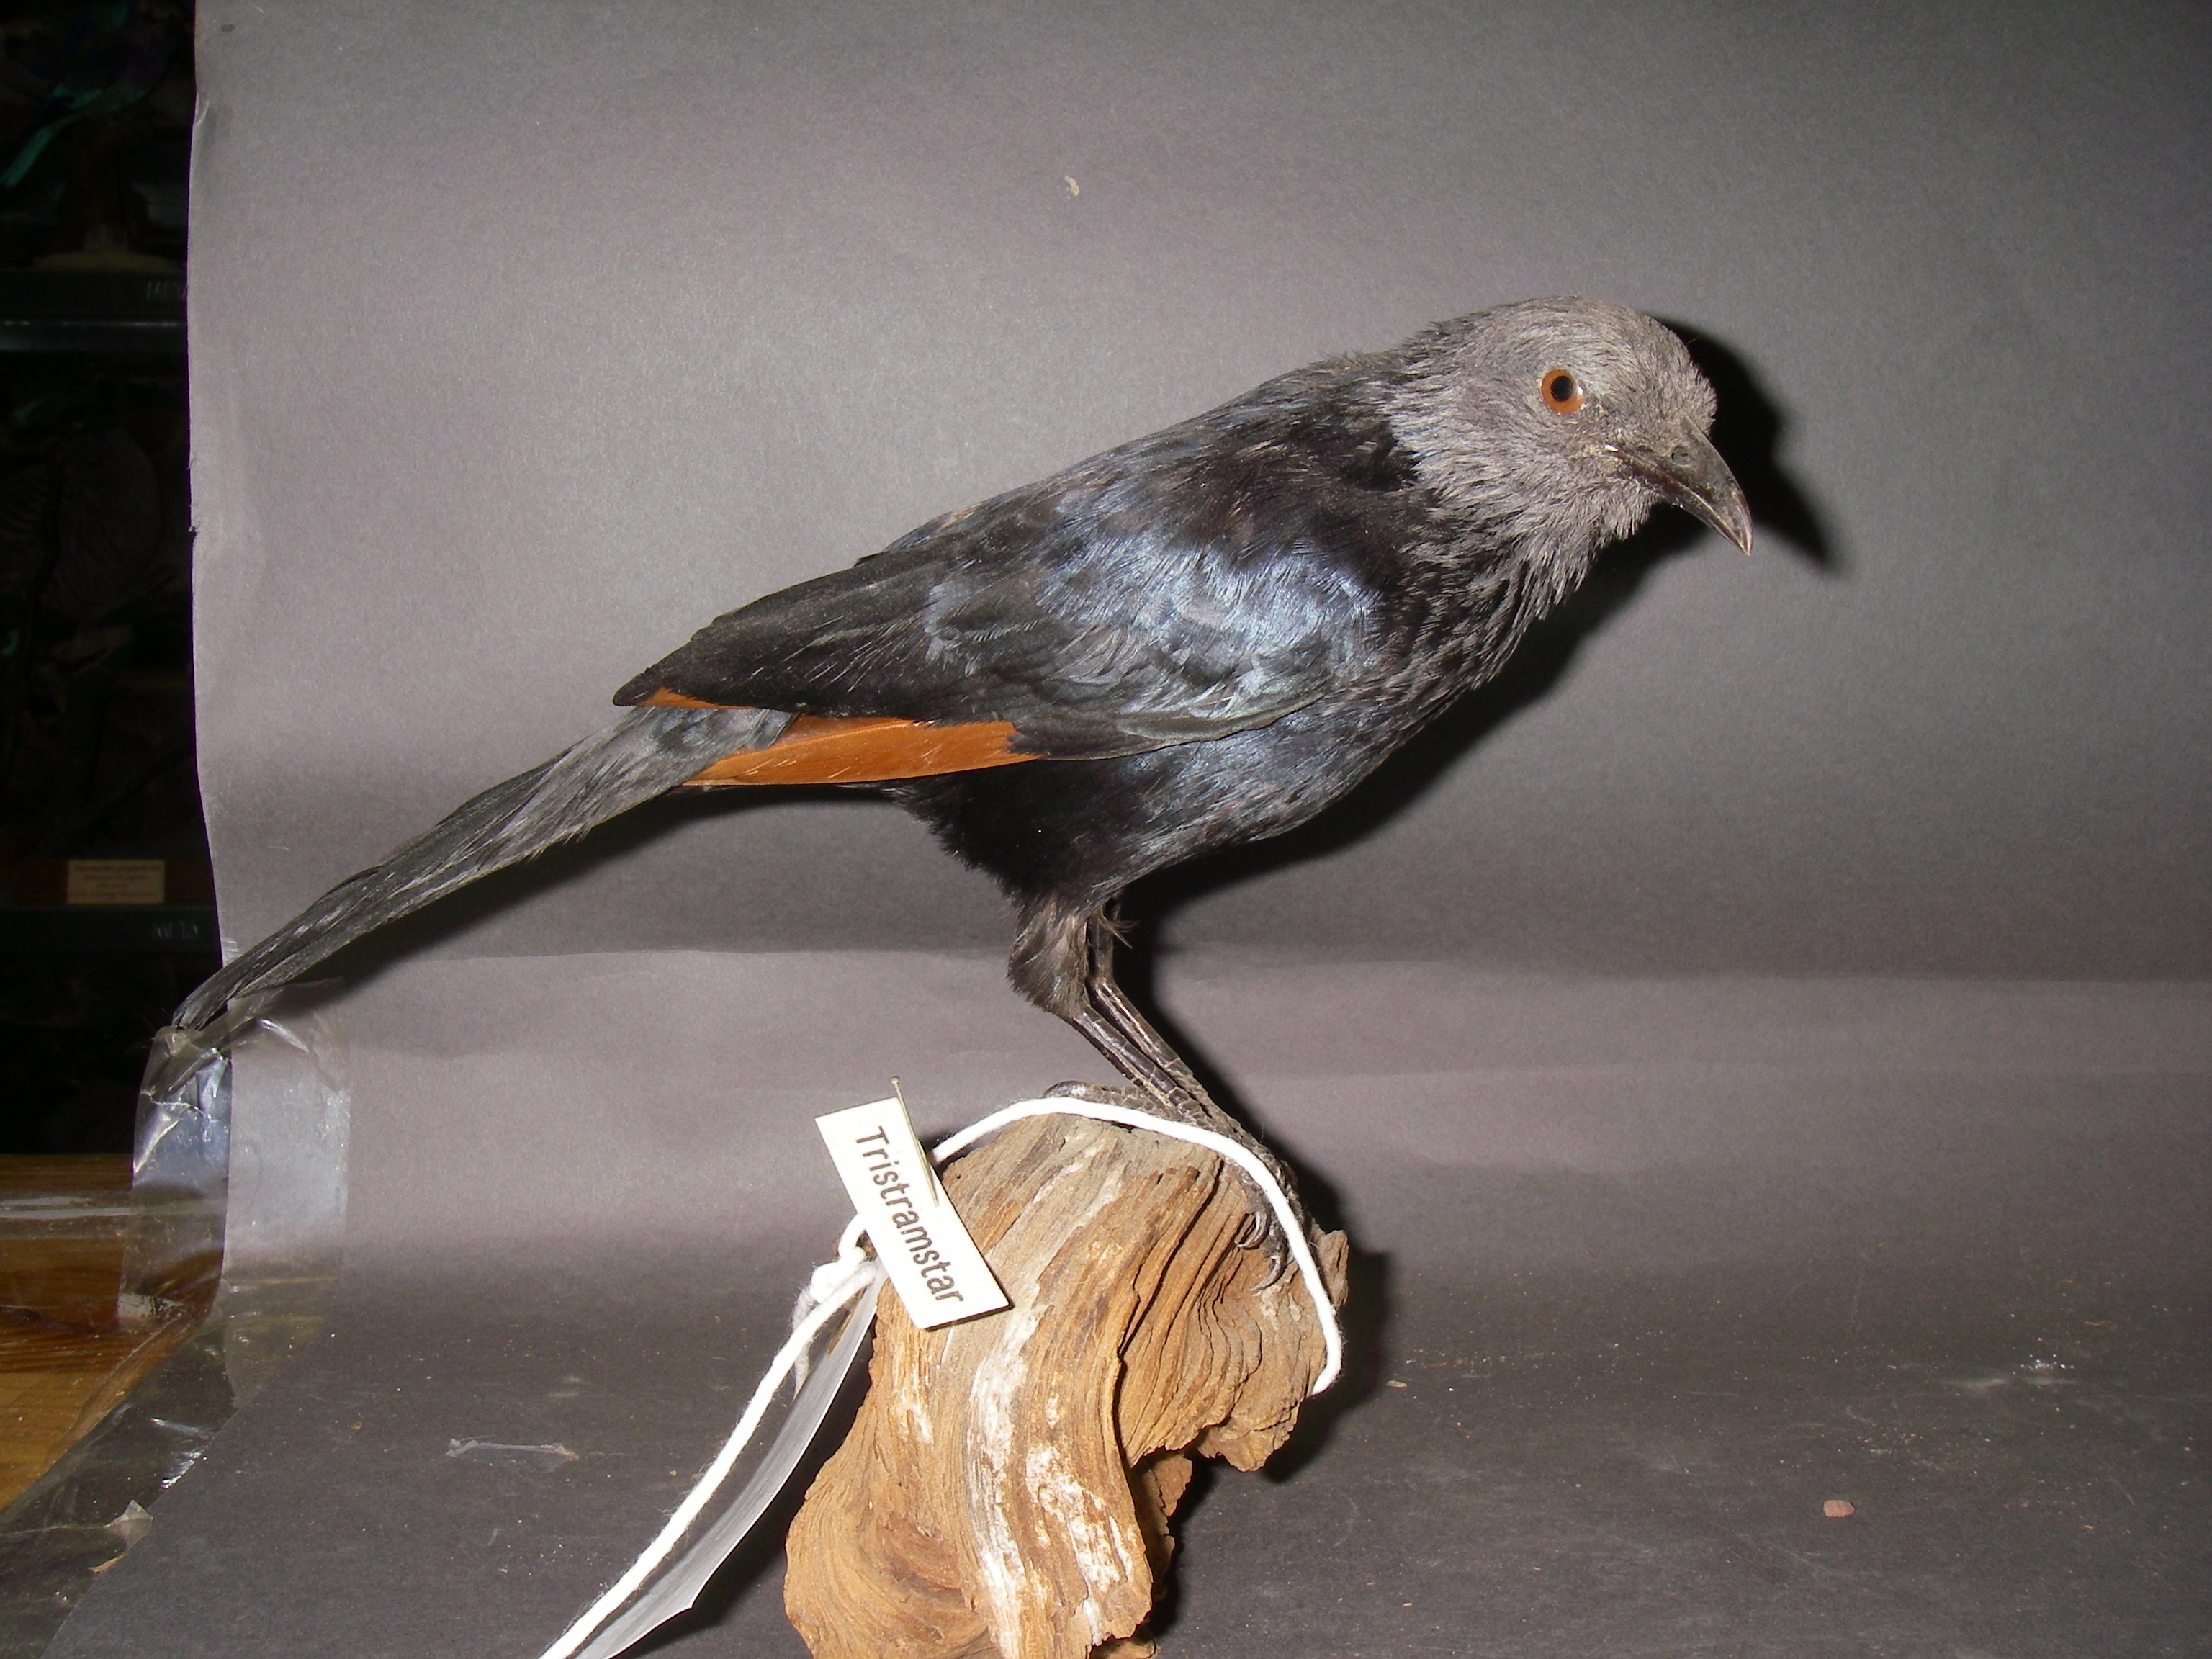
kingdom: Animalia
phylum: Chordata
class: Aves
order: Passeriformes
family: Sturnidae
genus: Onychognathus
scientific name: Onychognathus tristramii
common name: Tristram's starling
